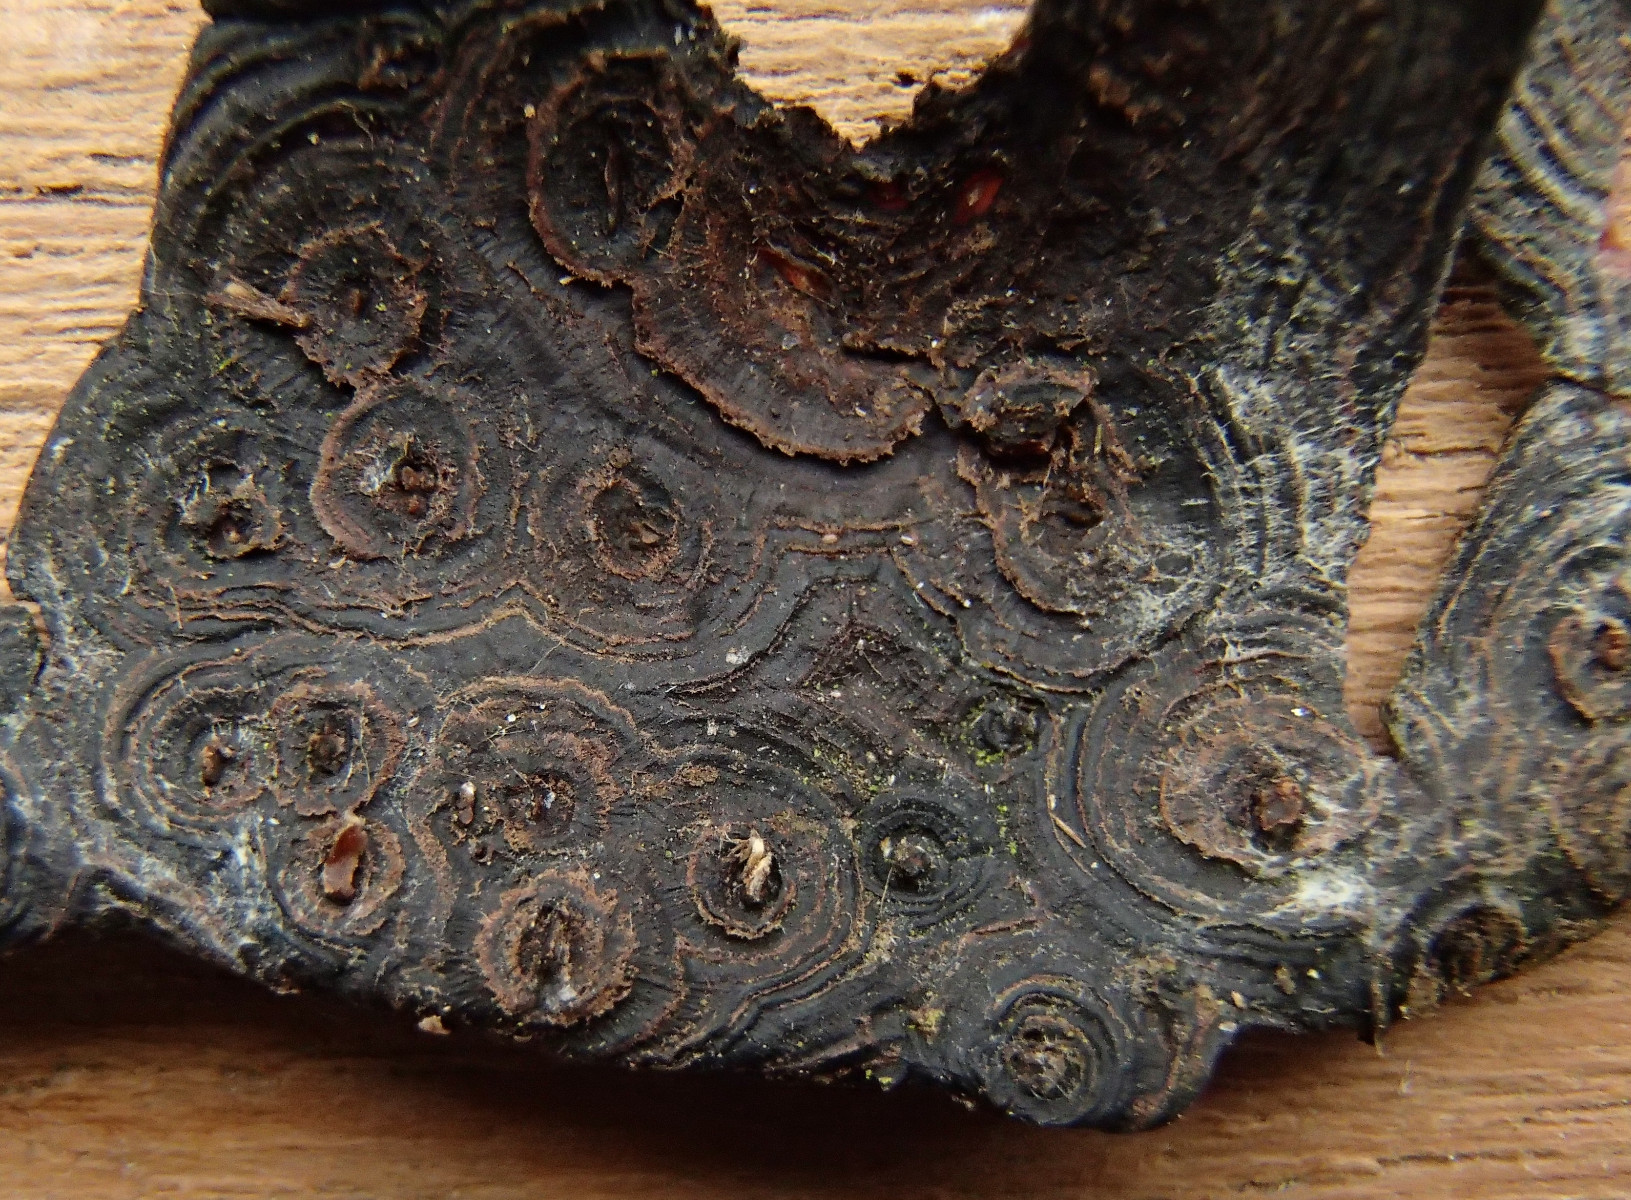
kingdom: Fungi
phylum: Basidiomycota
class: Agaricomycetes
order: Russulales
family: Peniophoraceae
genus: Peniophora
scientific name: Peniophora
